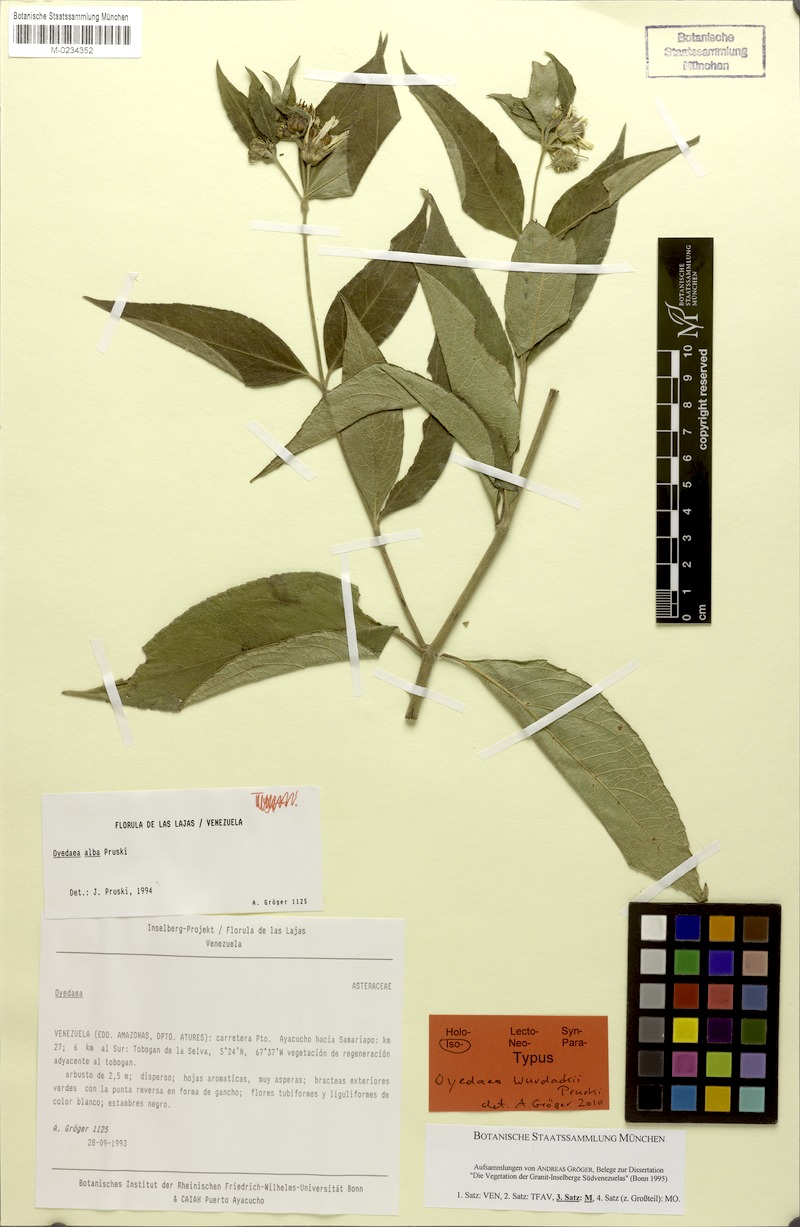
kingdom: Plantae
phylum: Tracheophyta
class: Magnoliopsida
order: Asterales
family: Asteraceae
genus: Oyedaea
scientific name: Oyedaea wurdackii
